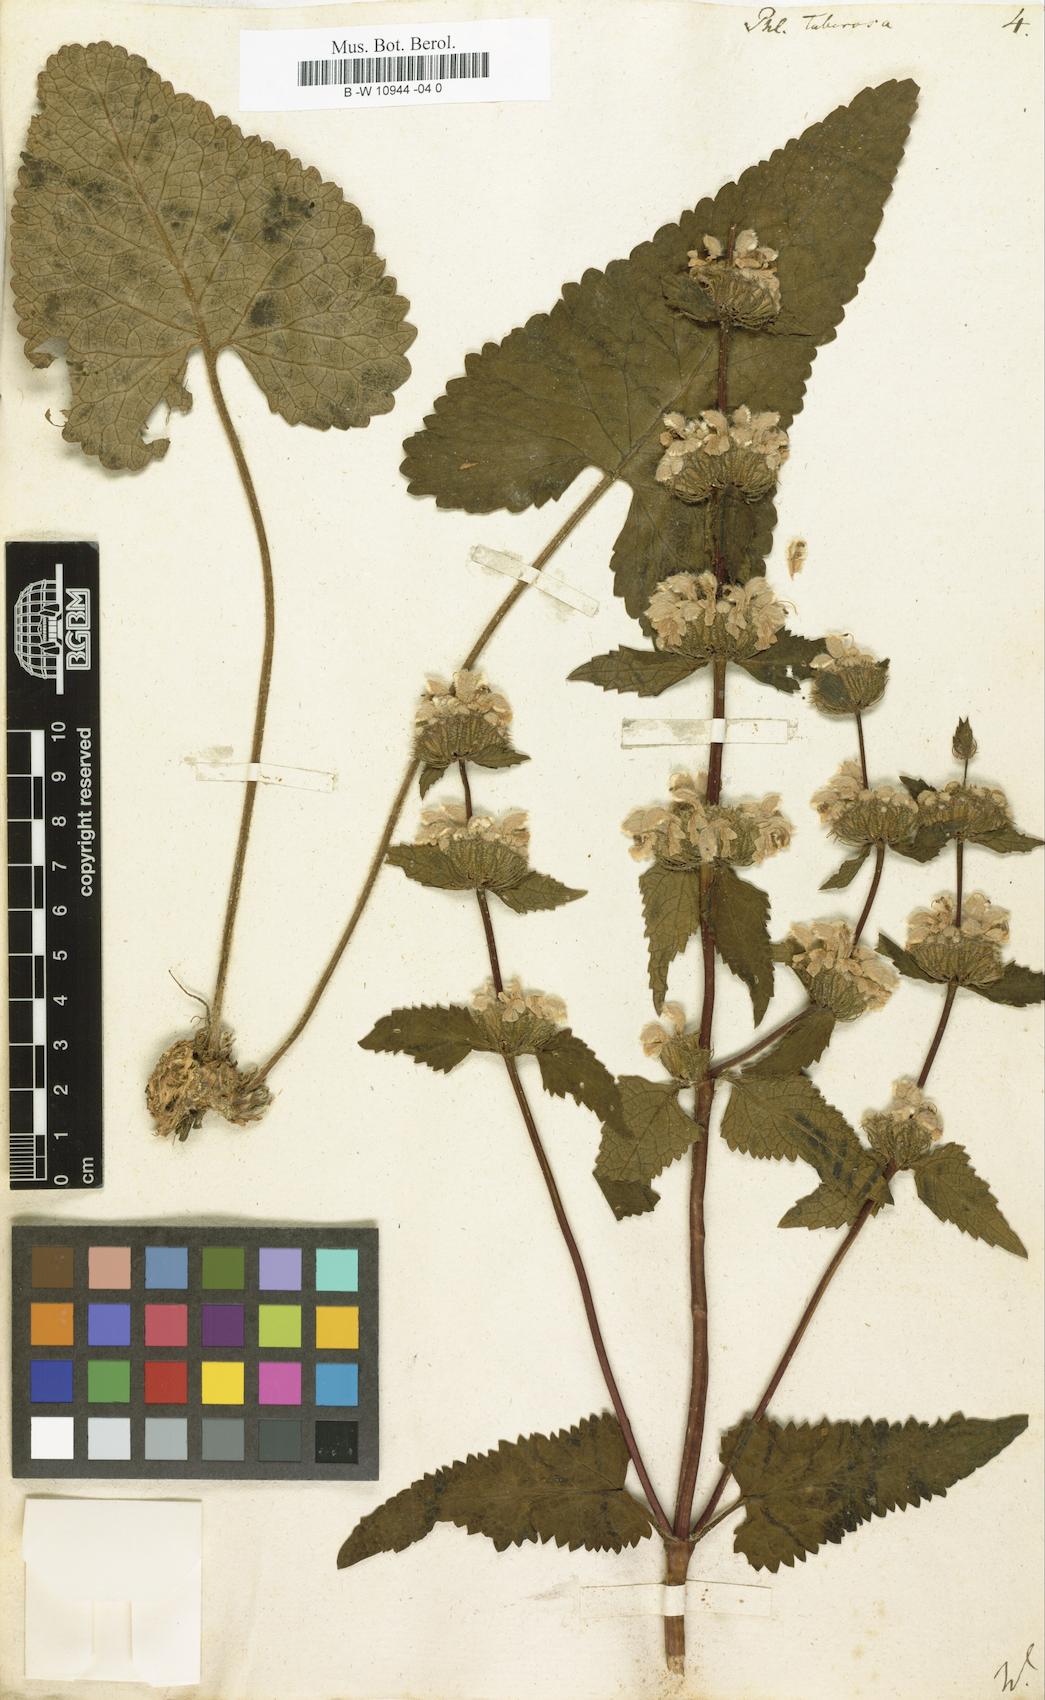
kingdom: Plantae
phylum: Tracheophyta
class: Magnoliopsida
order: Lamiales
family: Lamiaceae
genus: Phlomoides
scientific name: Phlomoides tuberosa
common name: Tuberous jerusalem sage
